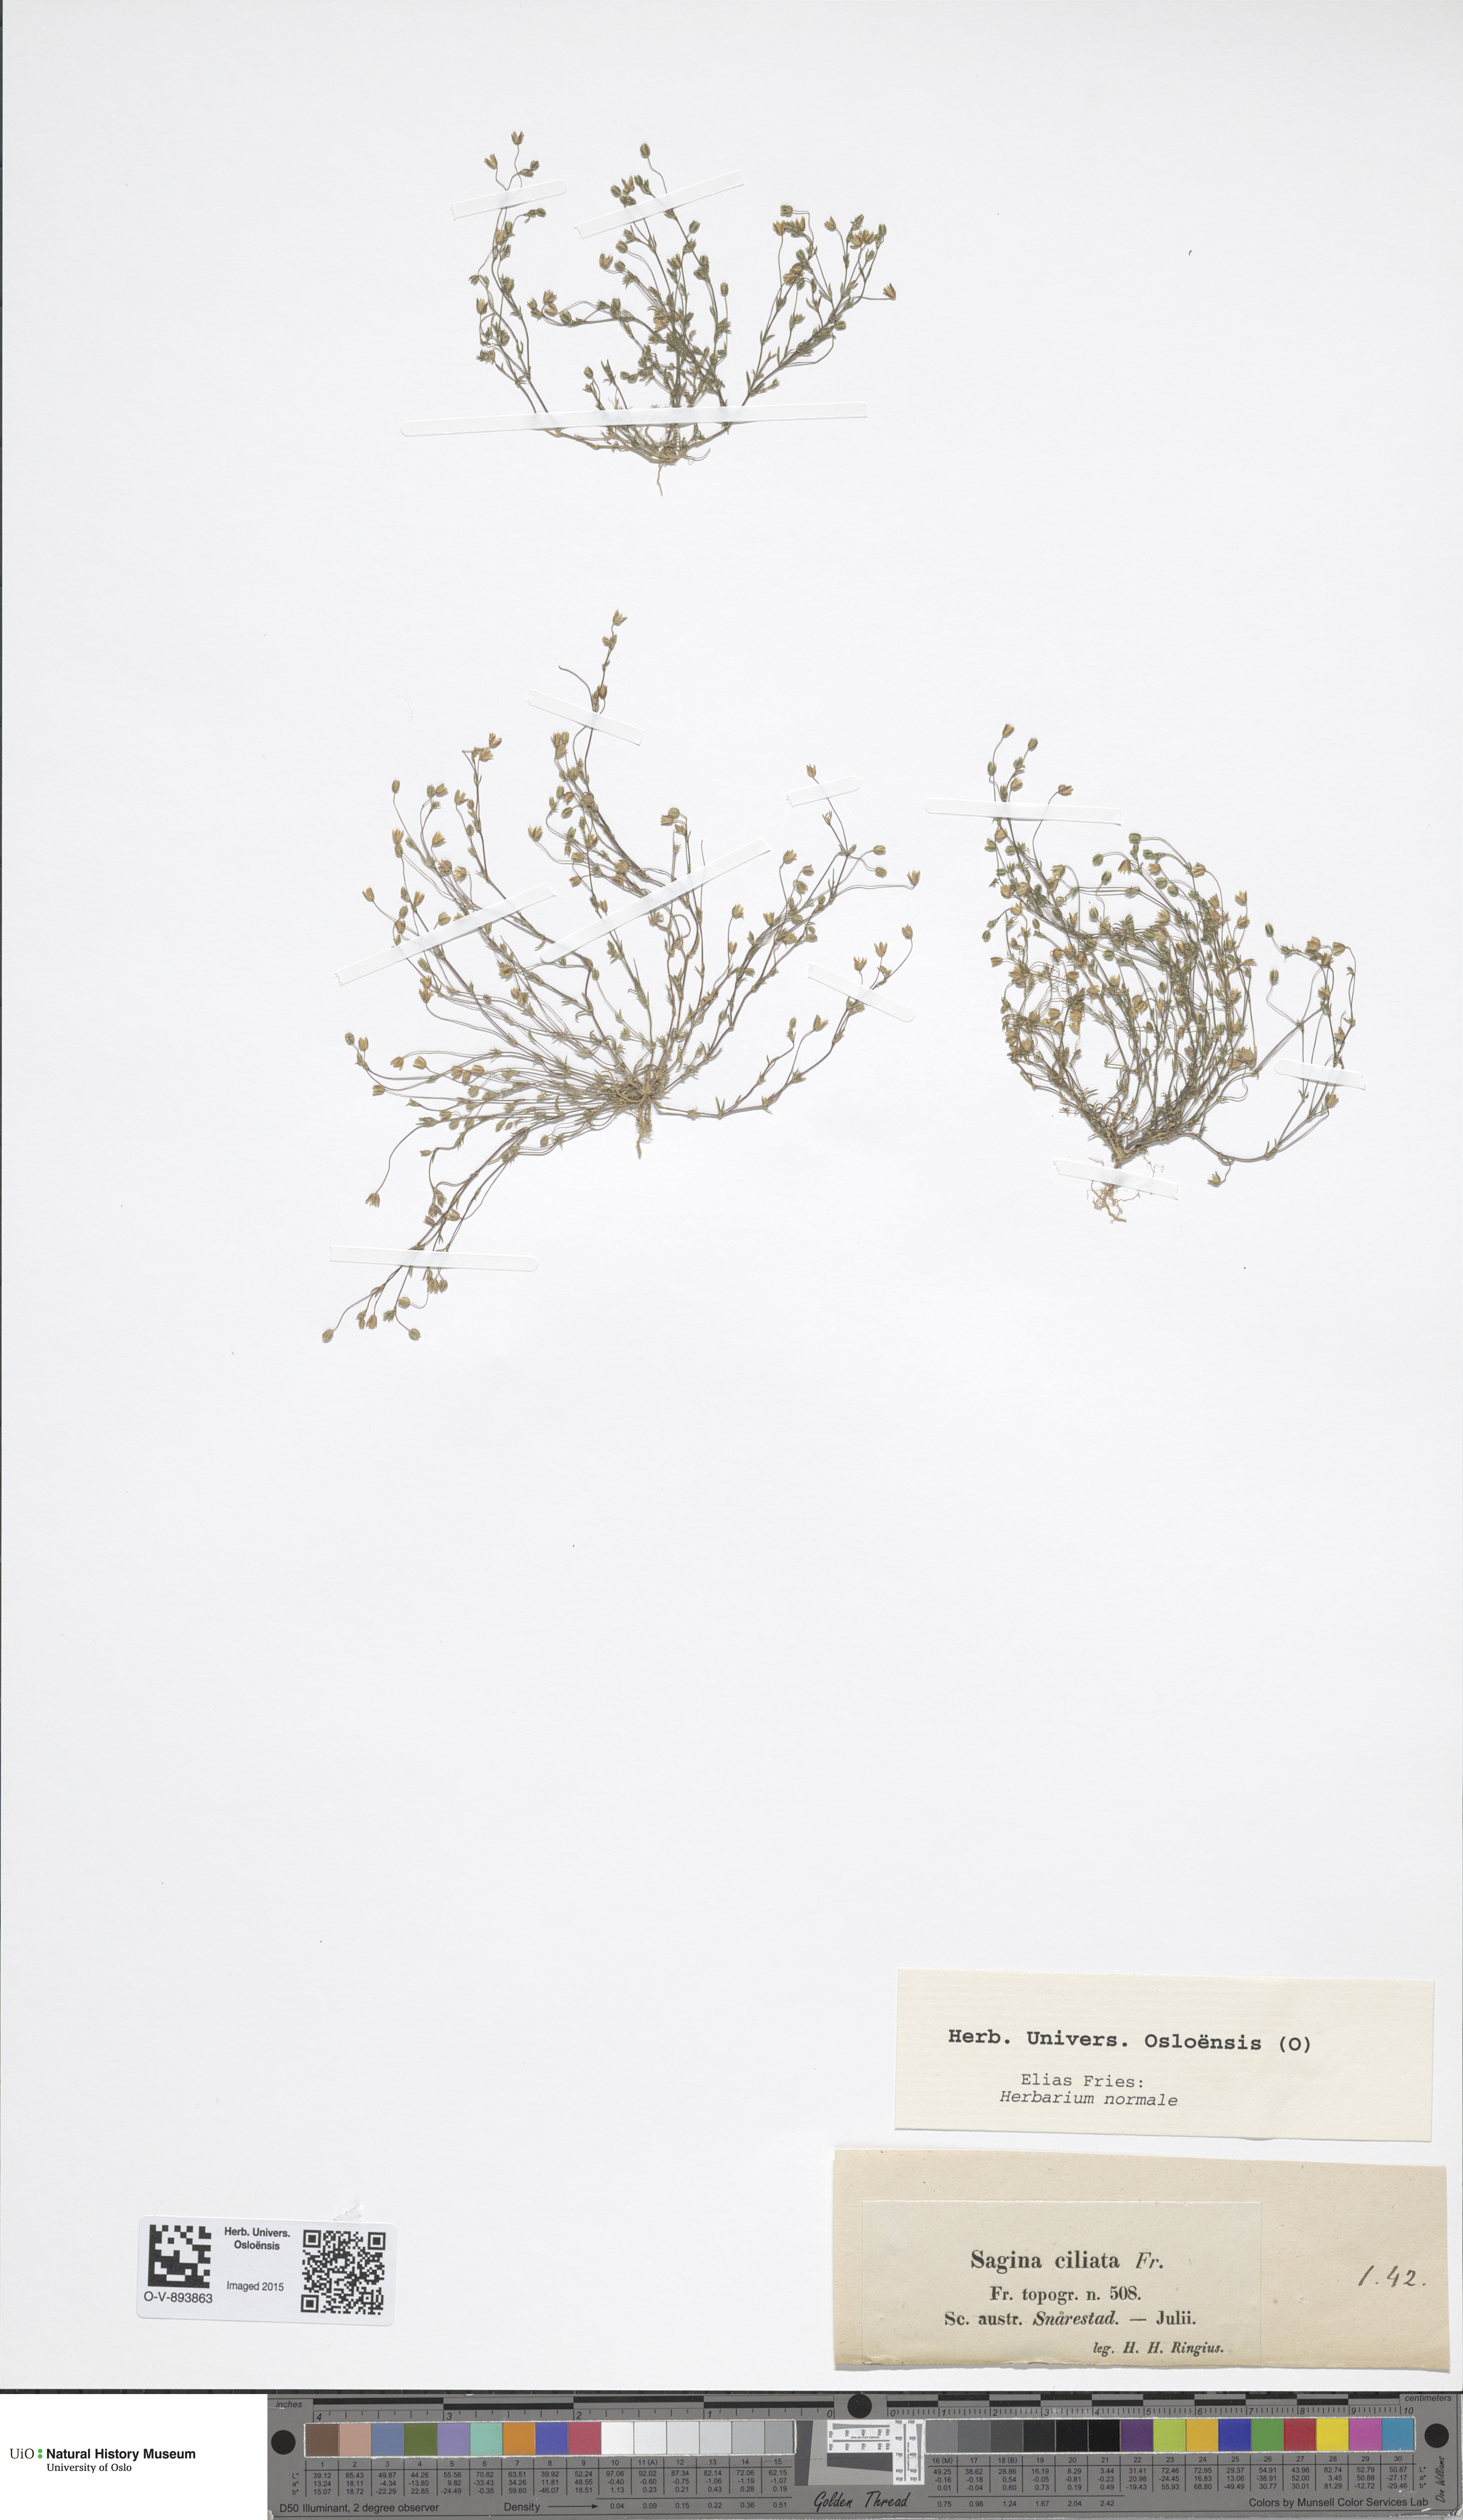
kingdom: Plantae
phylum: Tracheophyta
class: Magnoliopsida
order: Caryophyllales
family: Caryophyllaceae
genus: Sagina
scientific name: Sagina apetala
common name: Annual pearlwort
